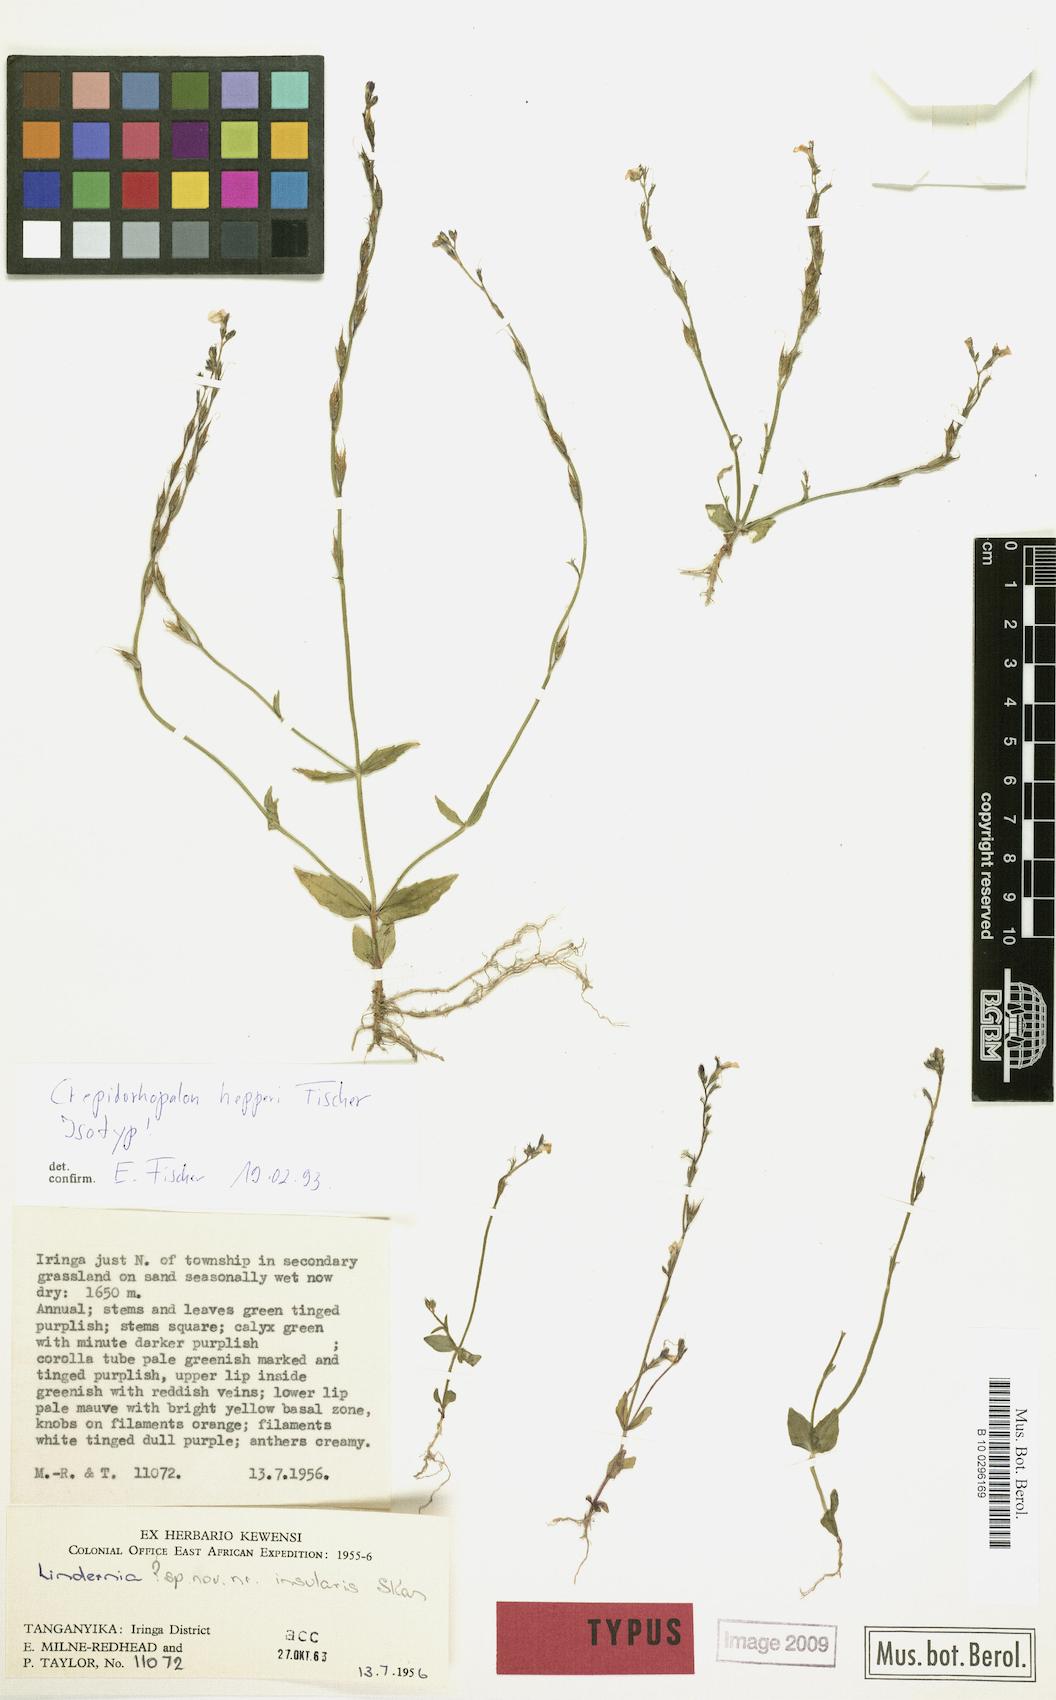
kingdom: Plantae
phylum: Tracheophyta
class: Magnoliopsida
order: Lamiales
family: Linderniaceae
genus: Crepidorhopalon
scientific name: Crepidorhopalon hepperi
